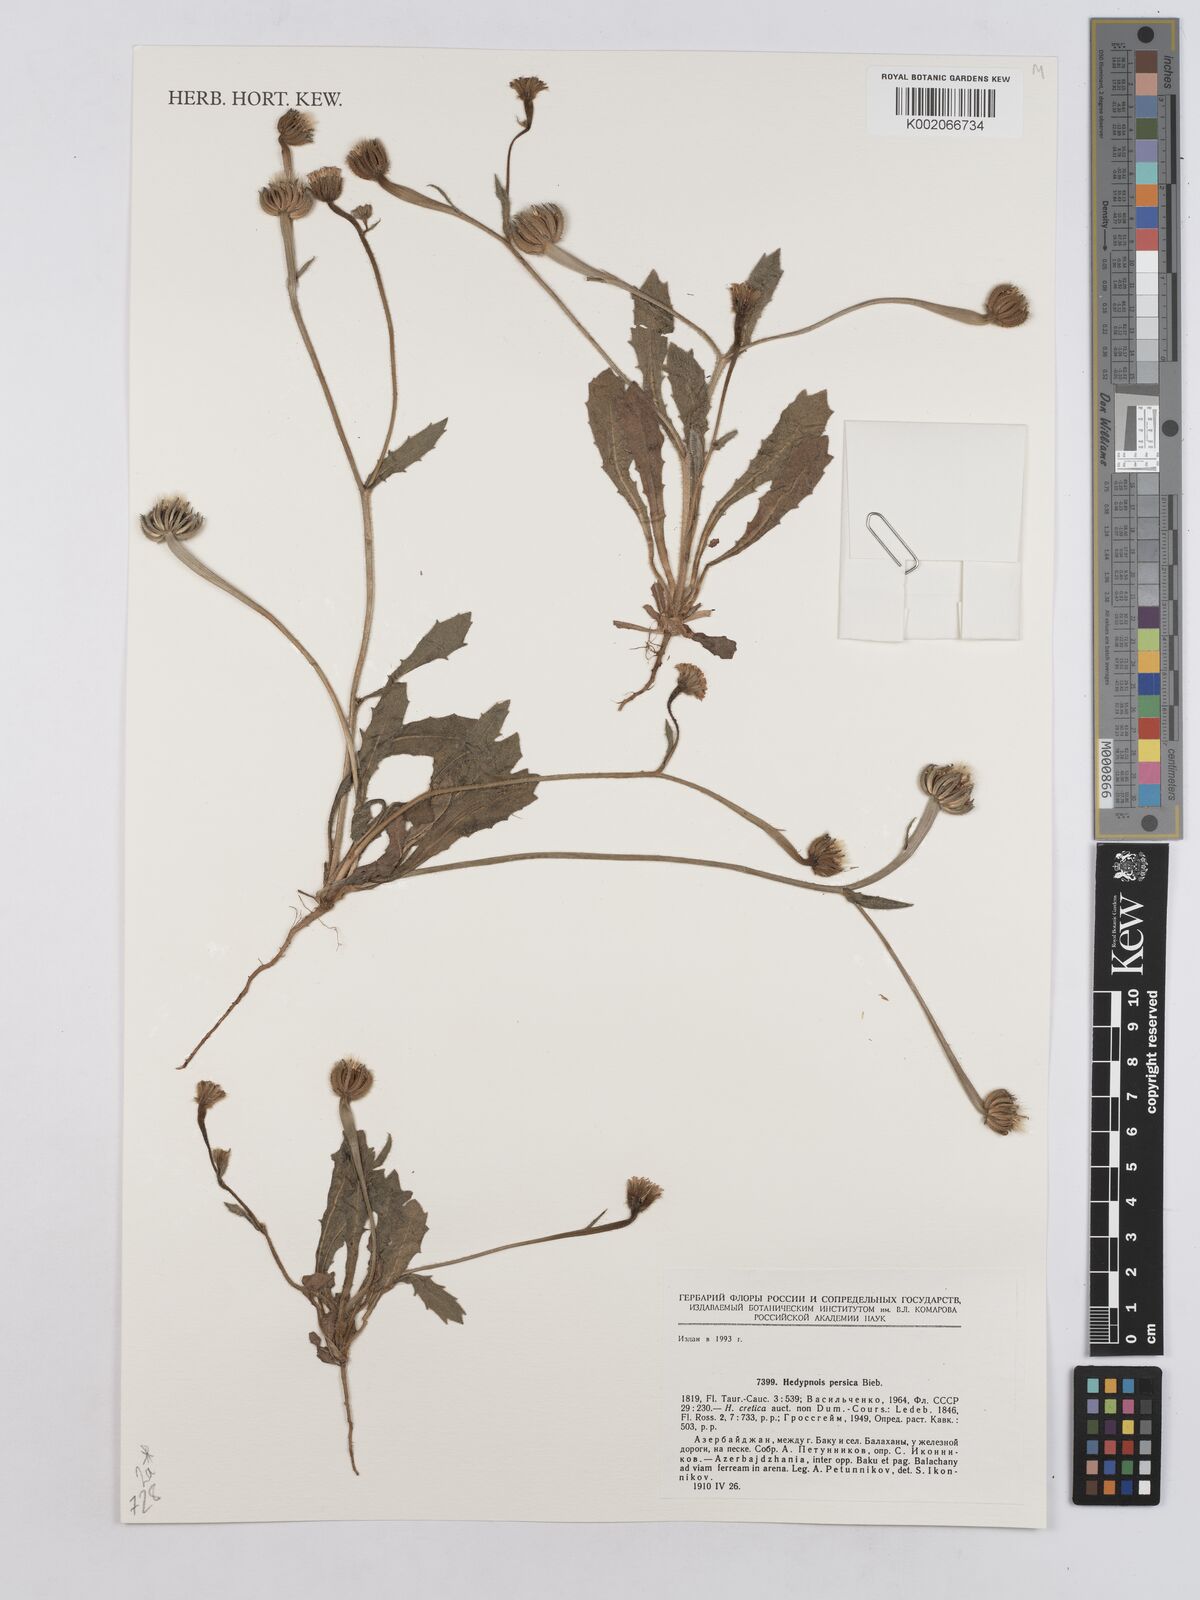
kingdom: Plantae
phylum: Tracheophyta
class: Magnoliopsida
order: Asterales
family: Asteraceae
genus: Hedypnois
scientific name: Hedypnois cretica
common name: Scaly hawkbit
